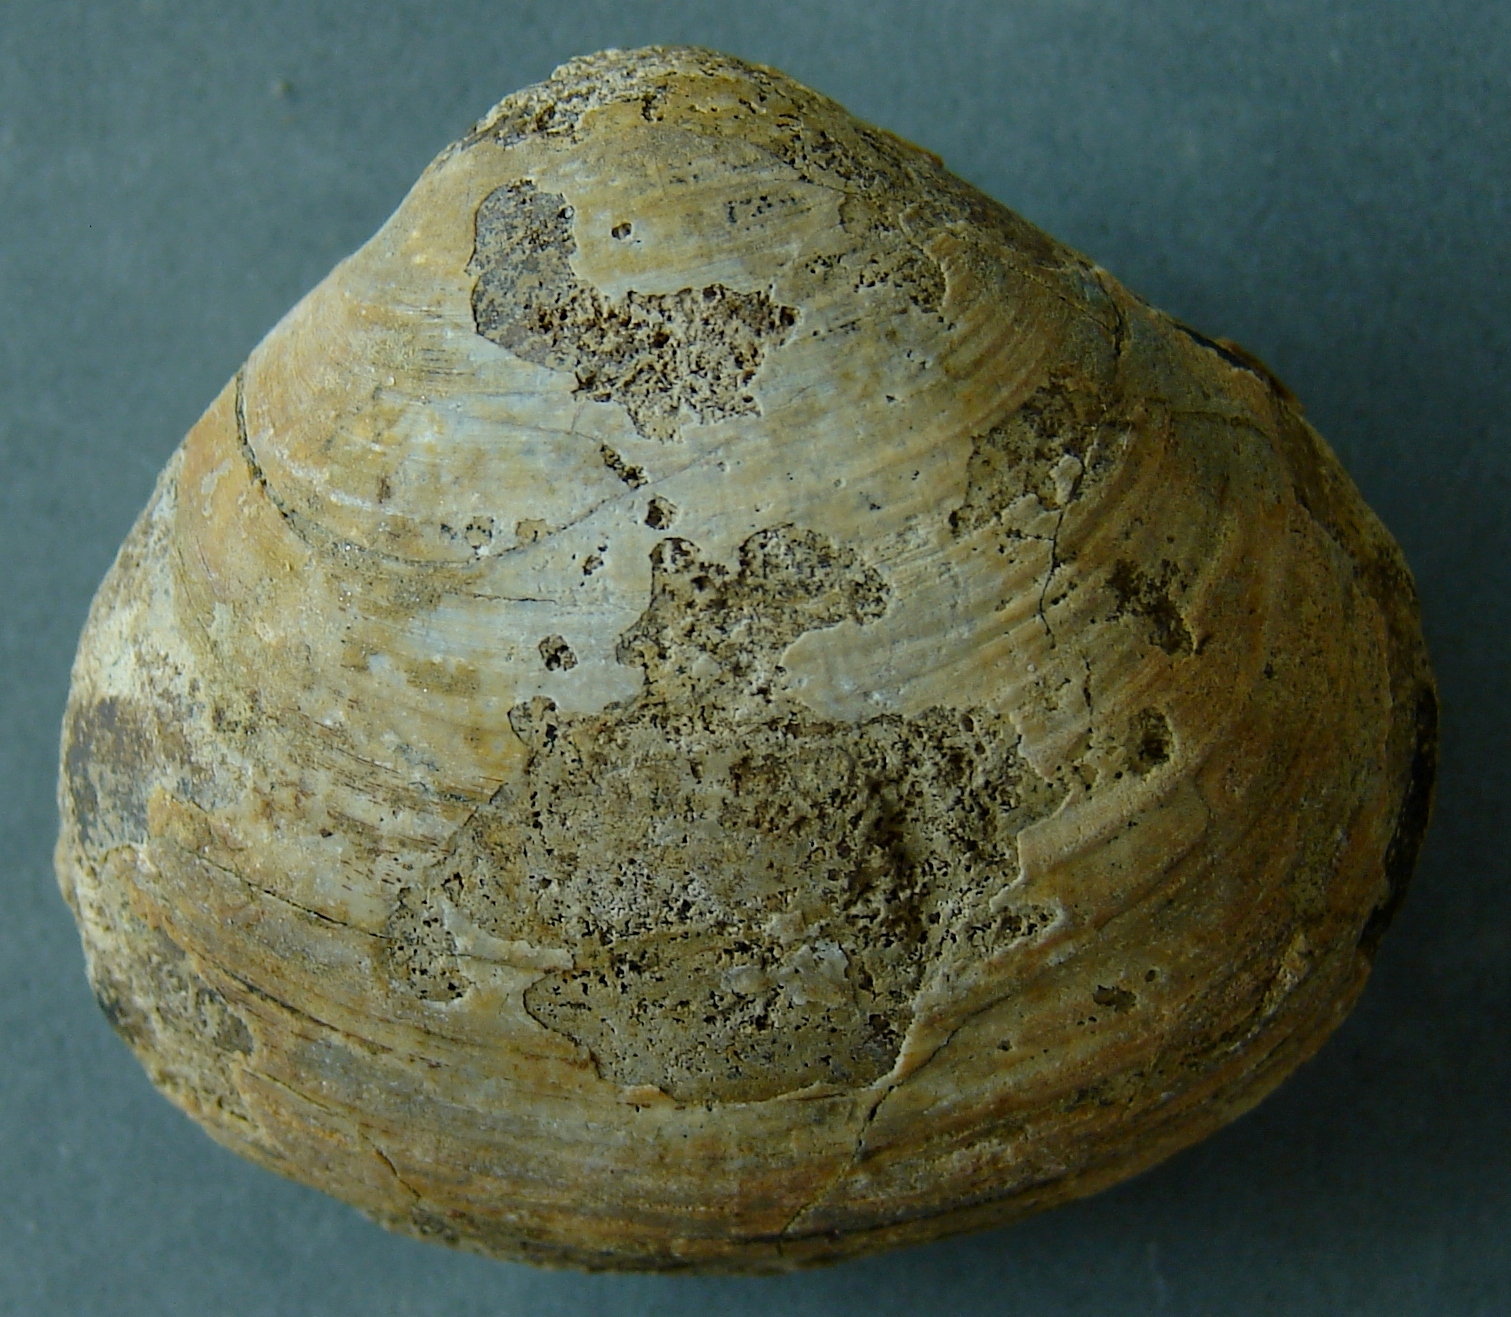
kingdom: Animalia
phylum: Mollusca
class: Bivalvia
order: Lucinida
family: Lucinidae
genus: Sphaeriola
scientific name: Sphaeriola
